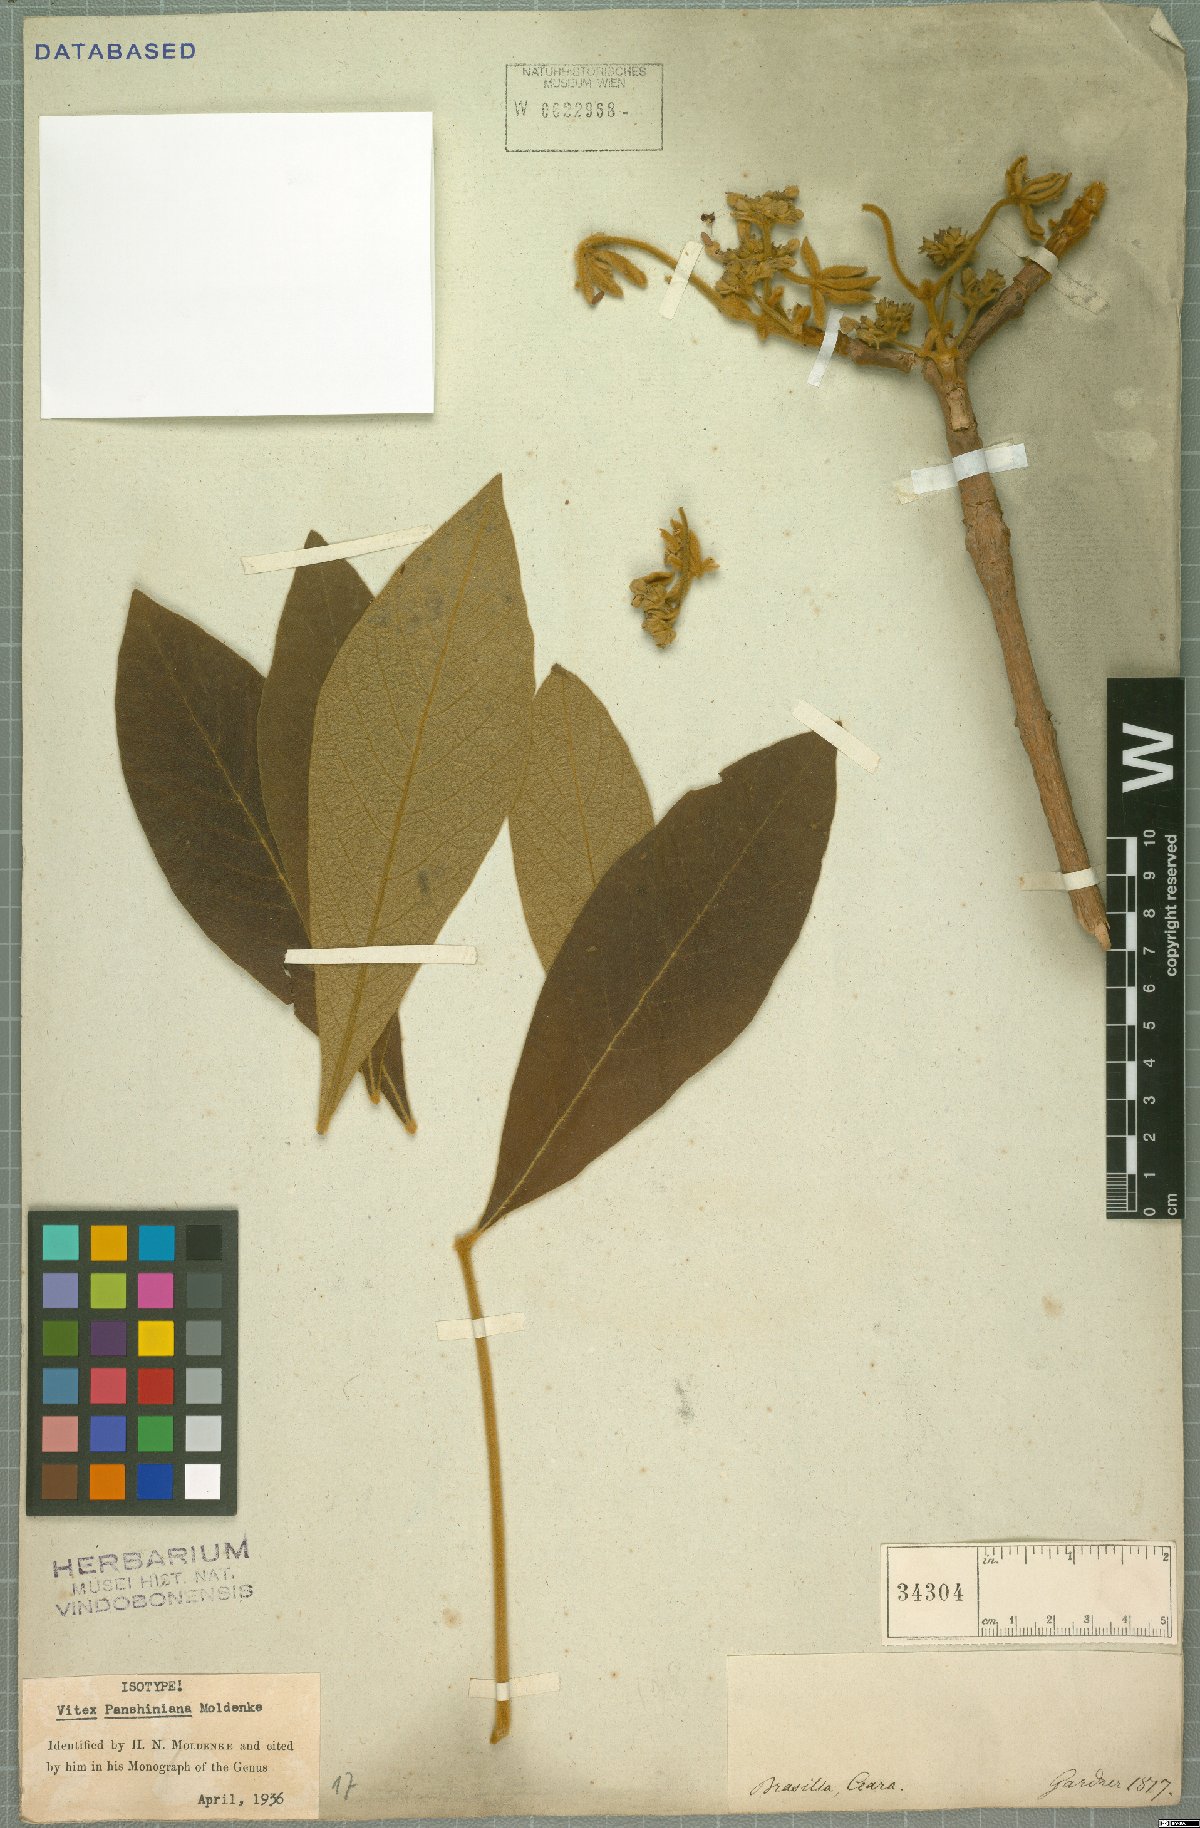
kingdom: Plantae
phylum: Tracheophyta
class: Magnoliopsida
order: Lamiales
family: Lamiaceae
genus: Vitex
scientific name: Vitex panshiniana
